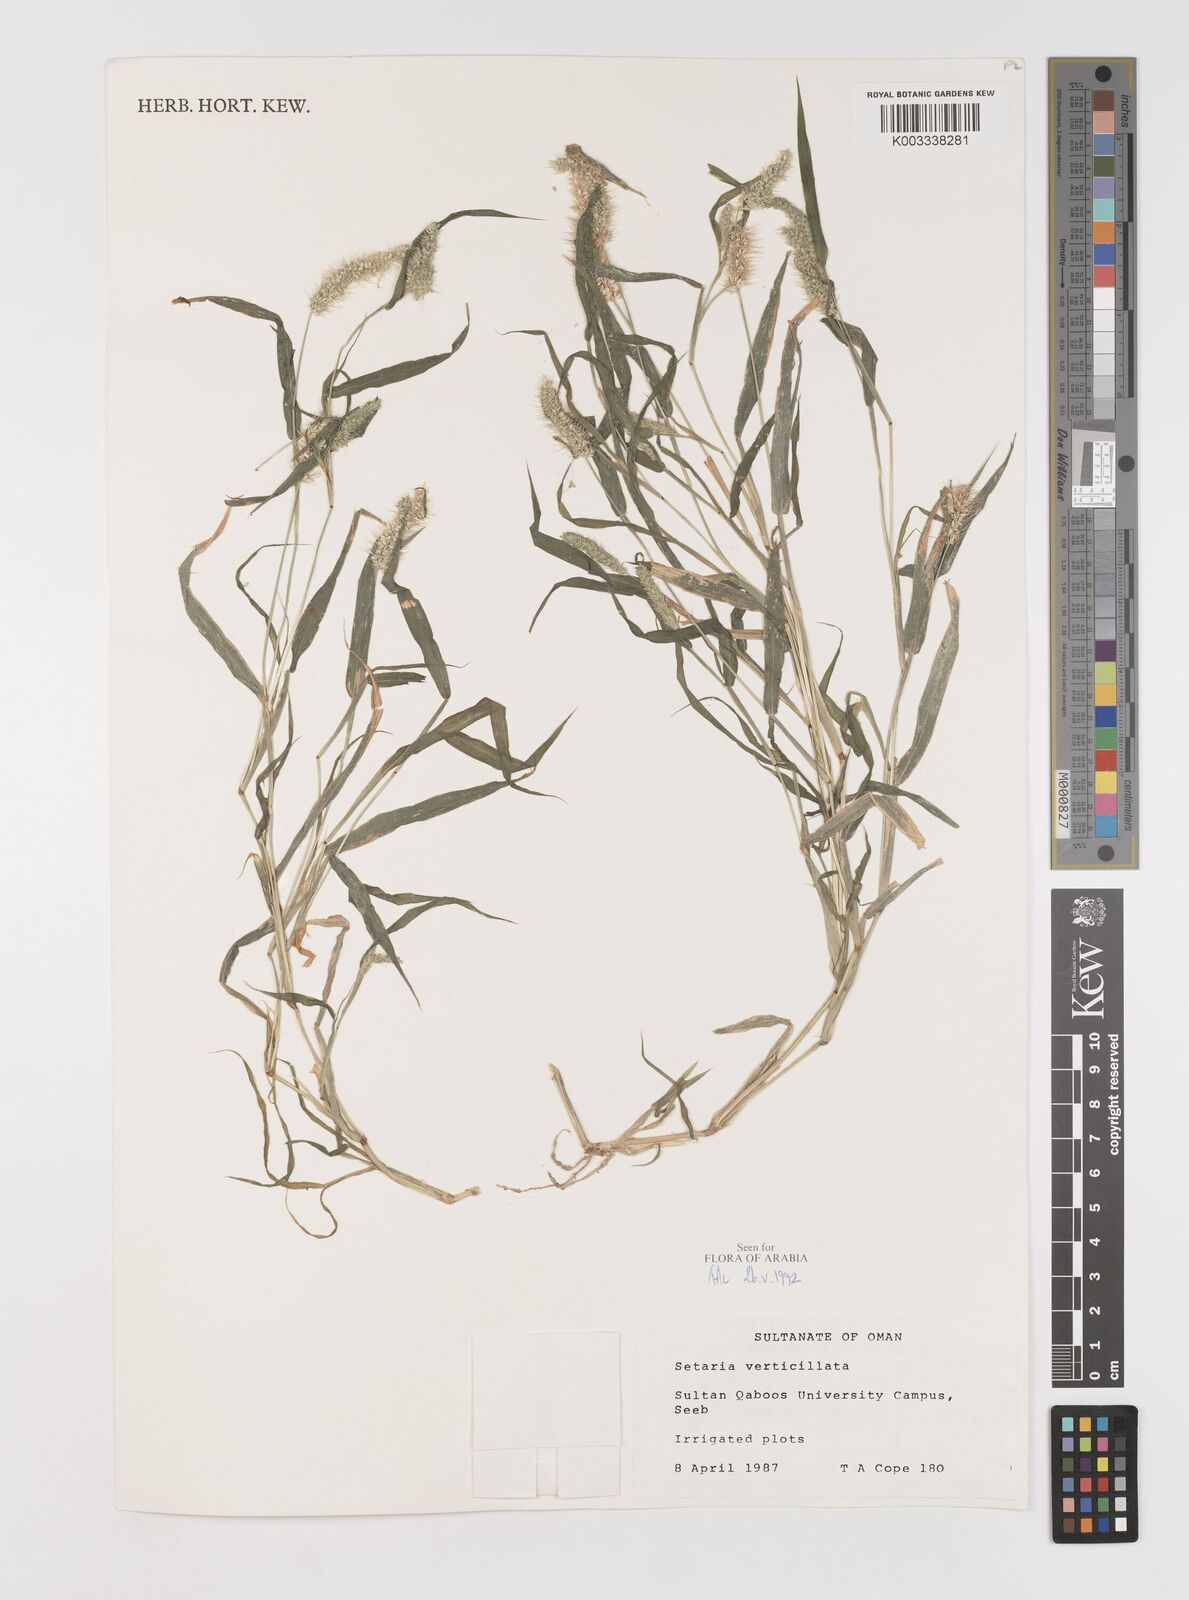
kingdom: Plantae
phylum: Tracheophyta
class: Liliopsida
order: Poales
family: Poaceae
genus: Setaria
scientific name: Setaria verticillata
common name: Hooked bristlegrass
